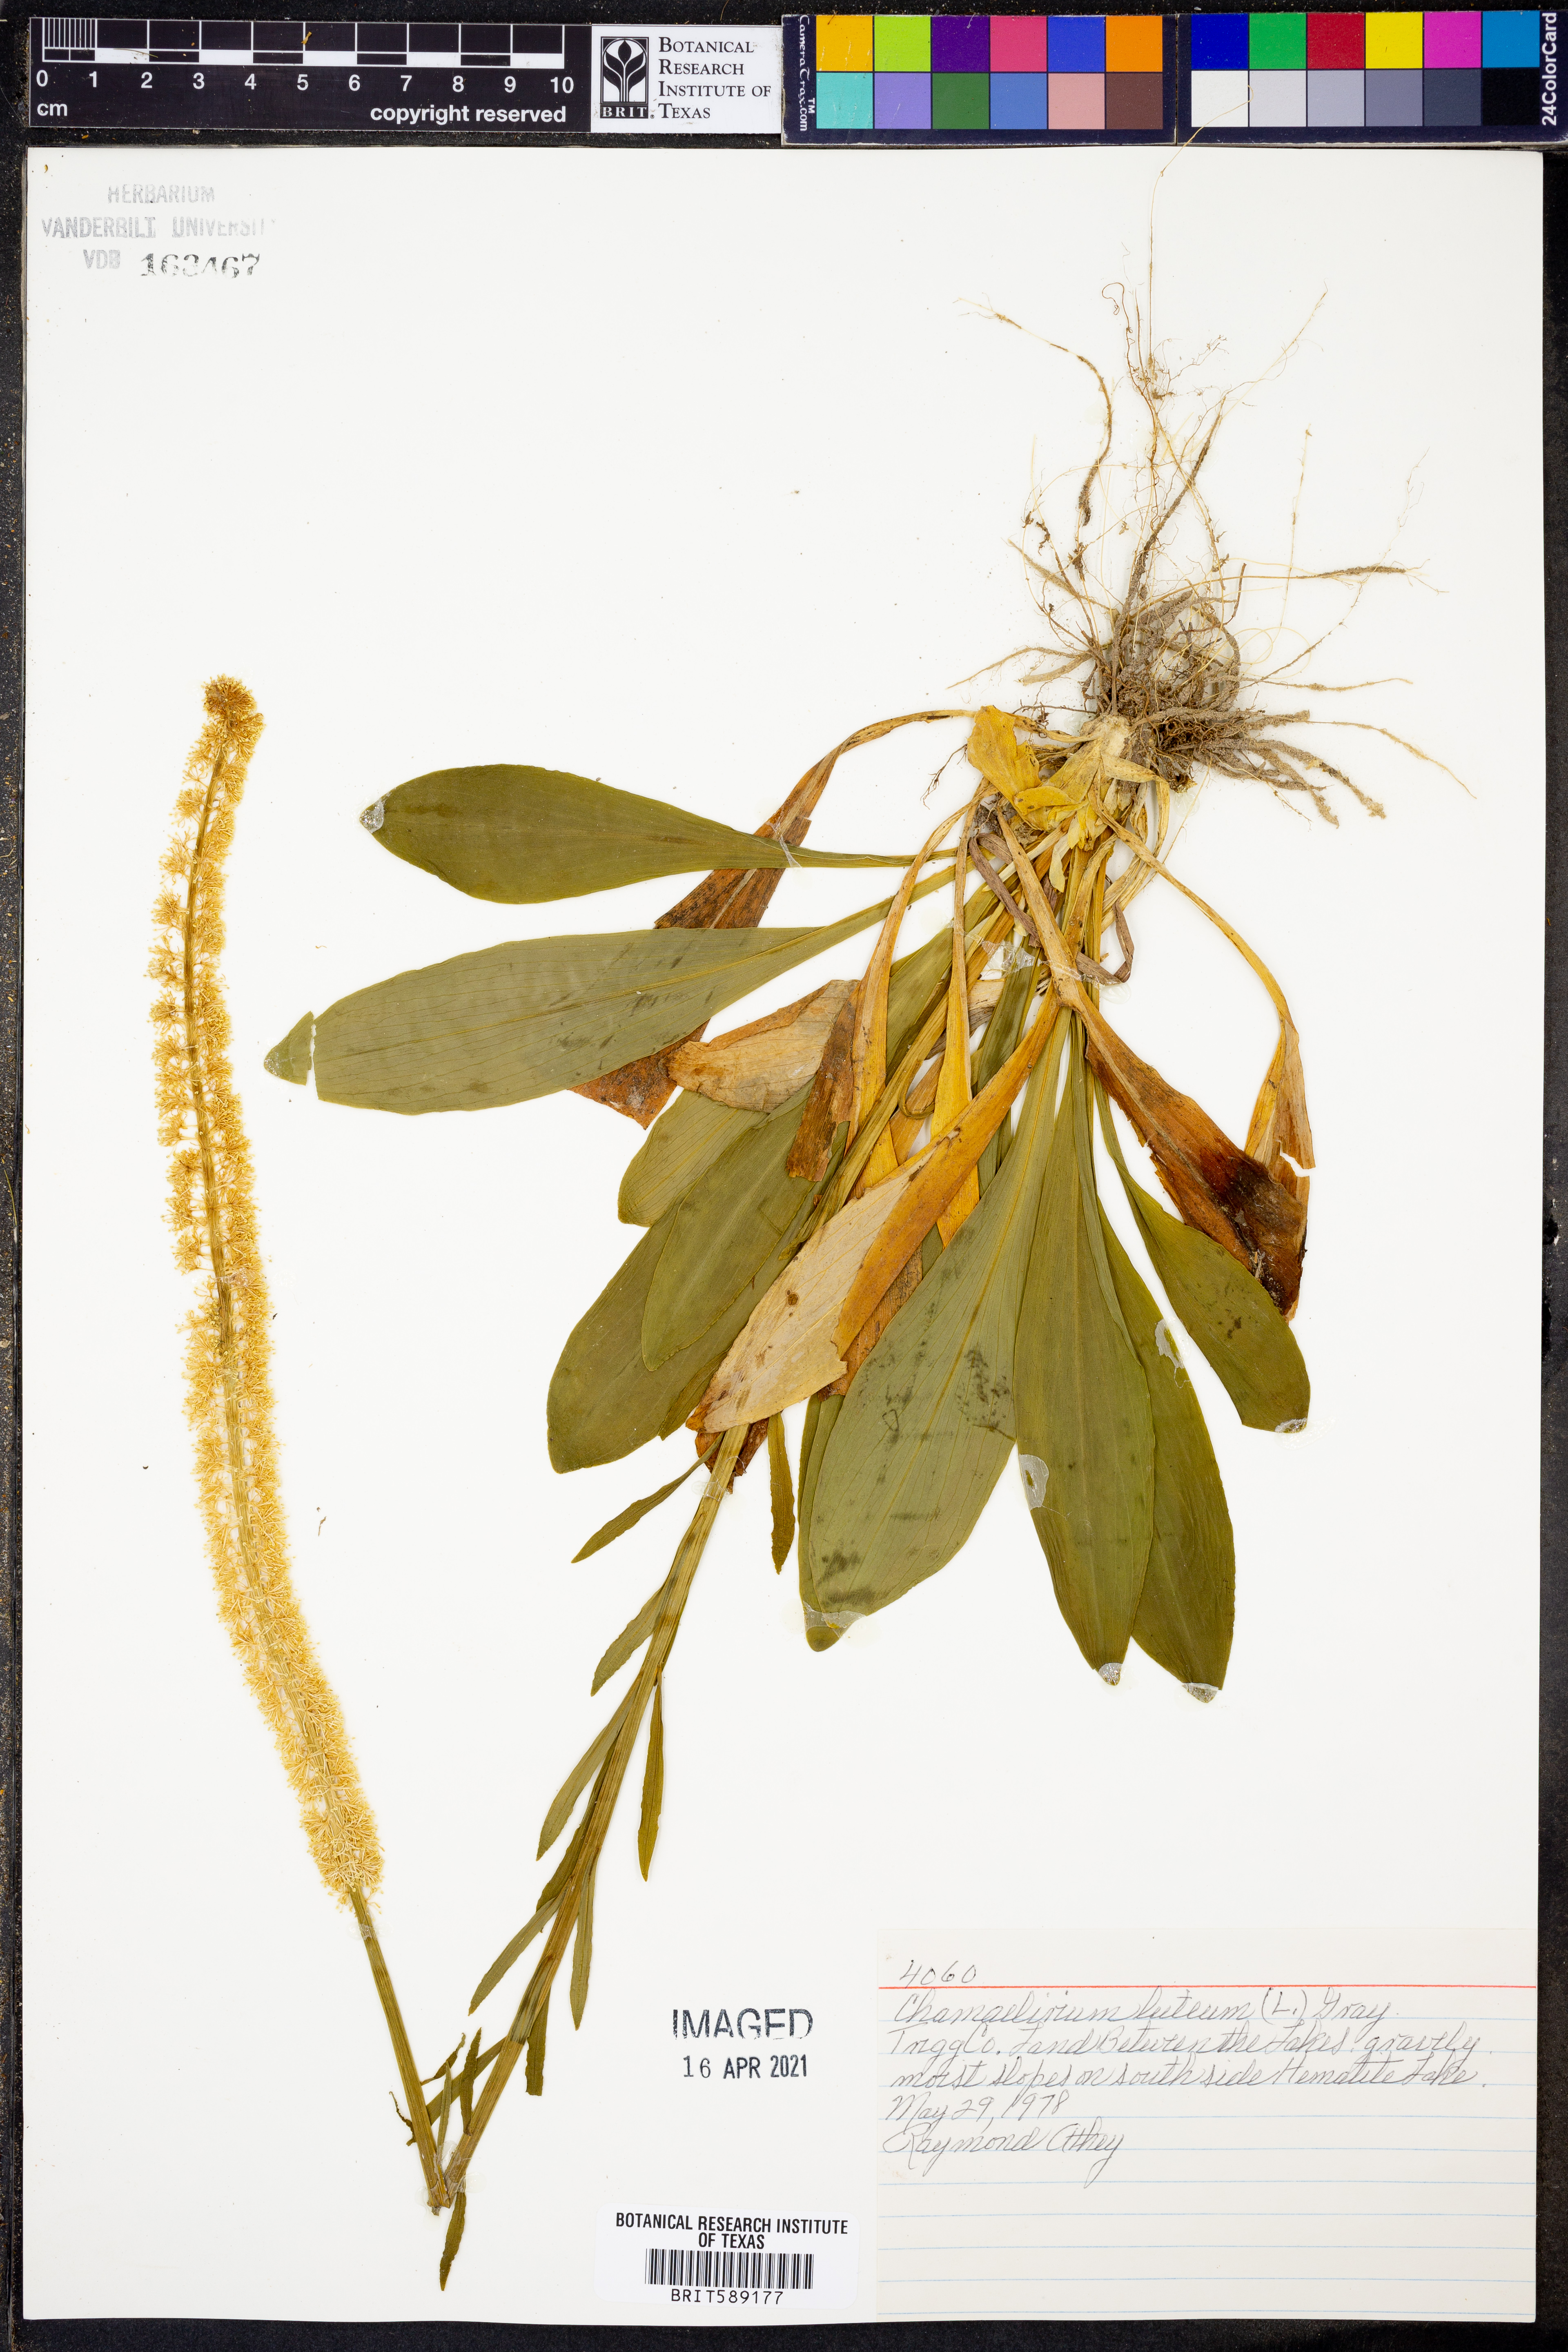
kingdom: Plantae
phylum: Tracheophyta
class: Liliopsida
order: Liliales
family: Melanthiaceae
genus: Chamaelirium
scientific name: Chamaelirium luteum
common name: Fairy-wand
